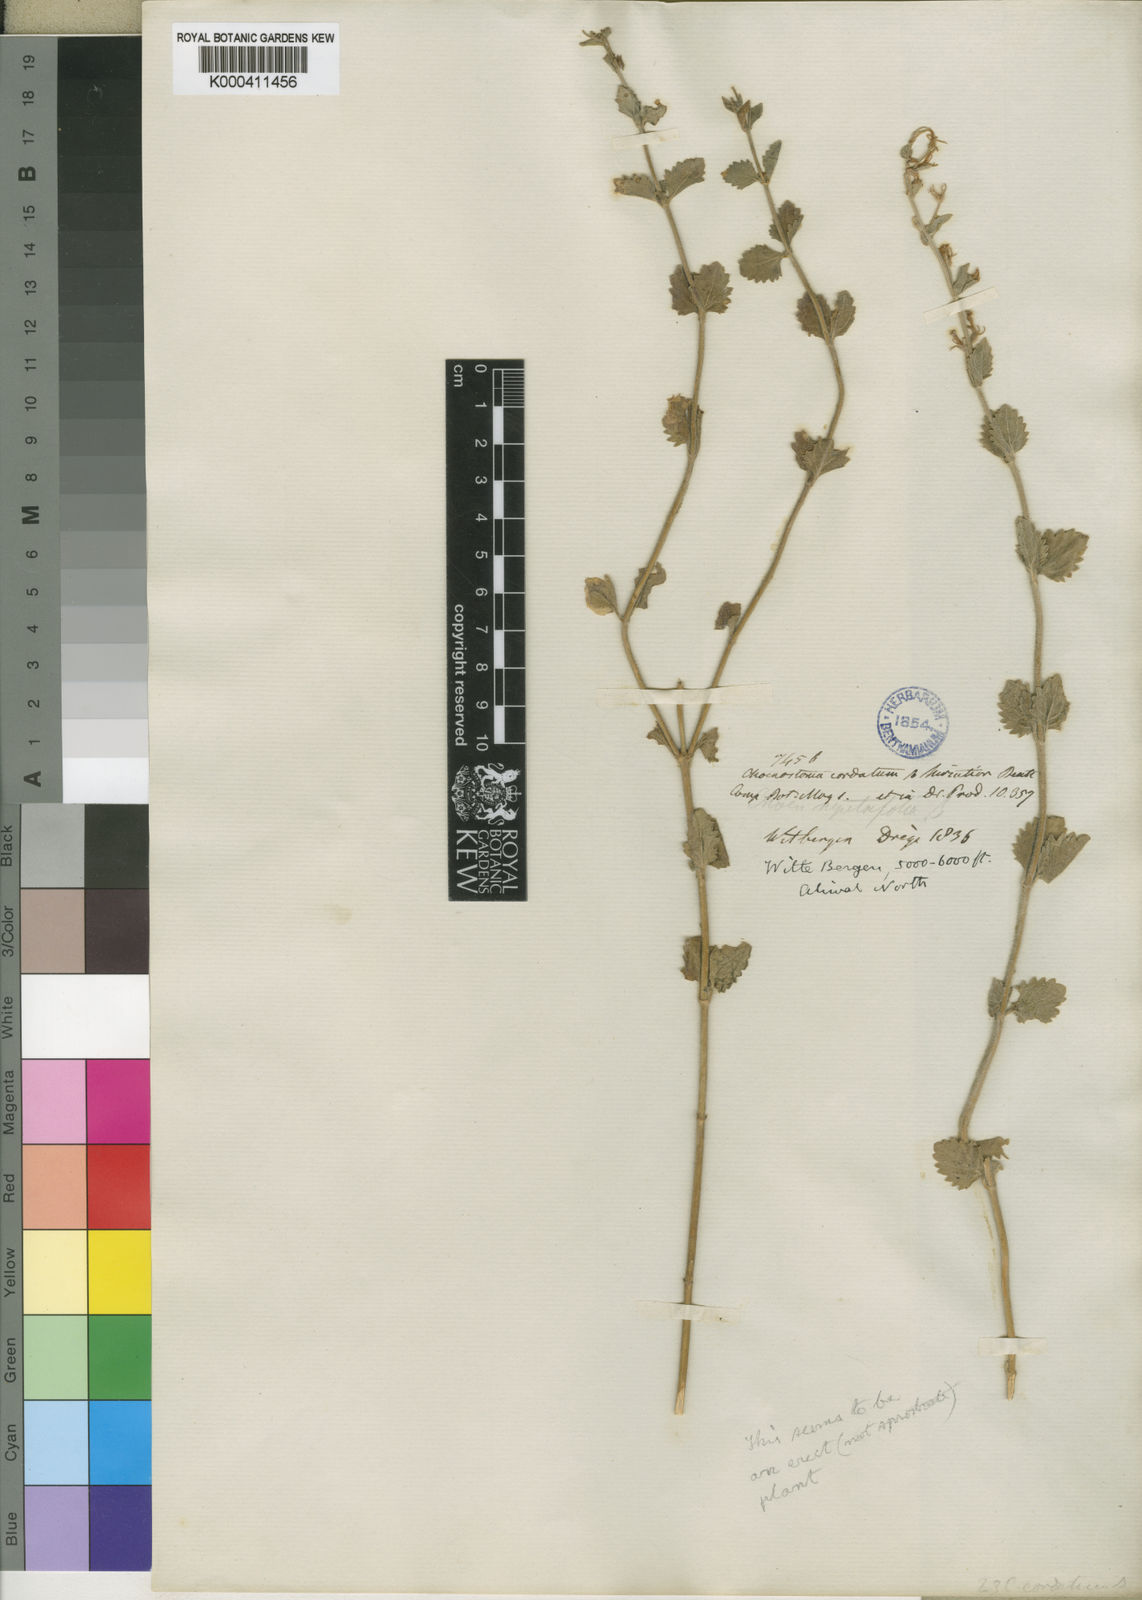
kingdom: Plantae
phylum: Tracheophyta
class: Magnoliopsida
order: Lamiales
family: Scrophulariaceae
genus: Chaenostoma
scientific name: Chaenostoma cordatum
